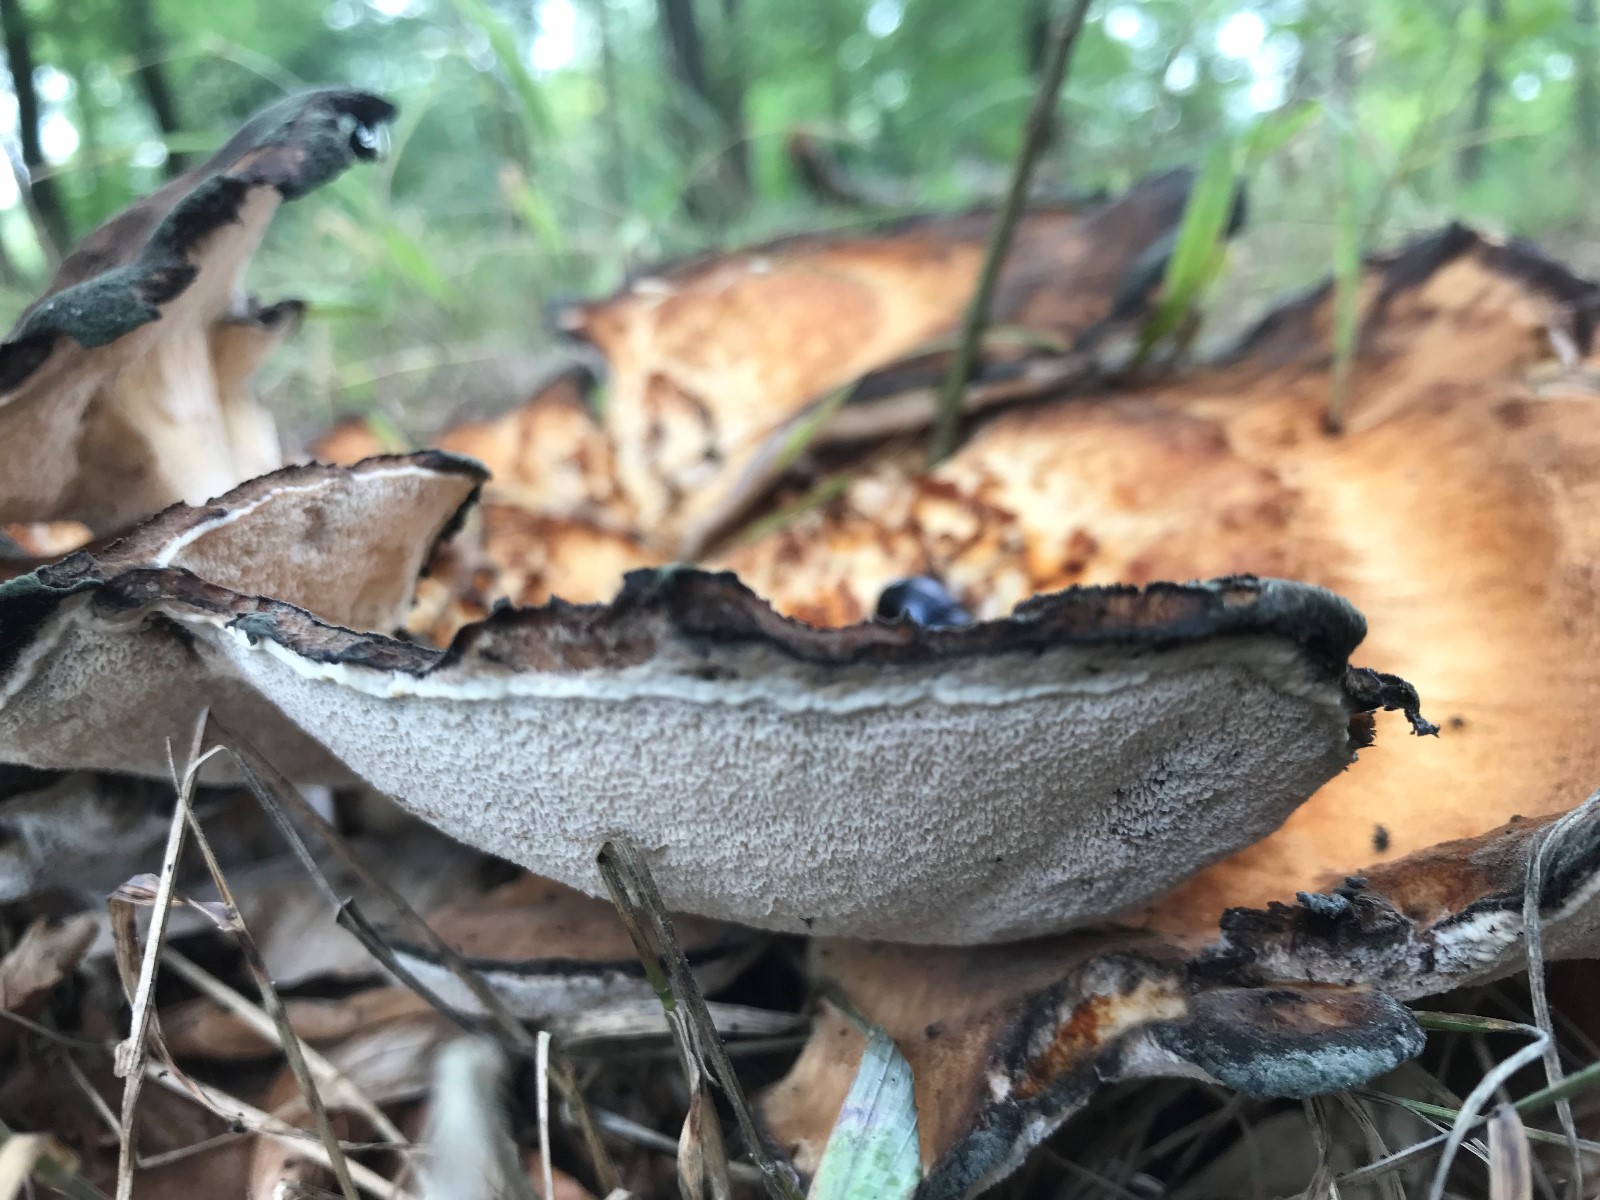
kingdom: Fungi
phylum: Basidiomycota
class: Agaricomycetes
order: Polyporales
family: Meripilaceae
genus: Meripilus
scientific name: Meripilus giganteus
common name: kæmpeporesvamp
